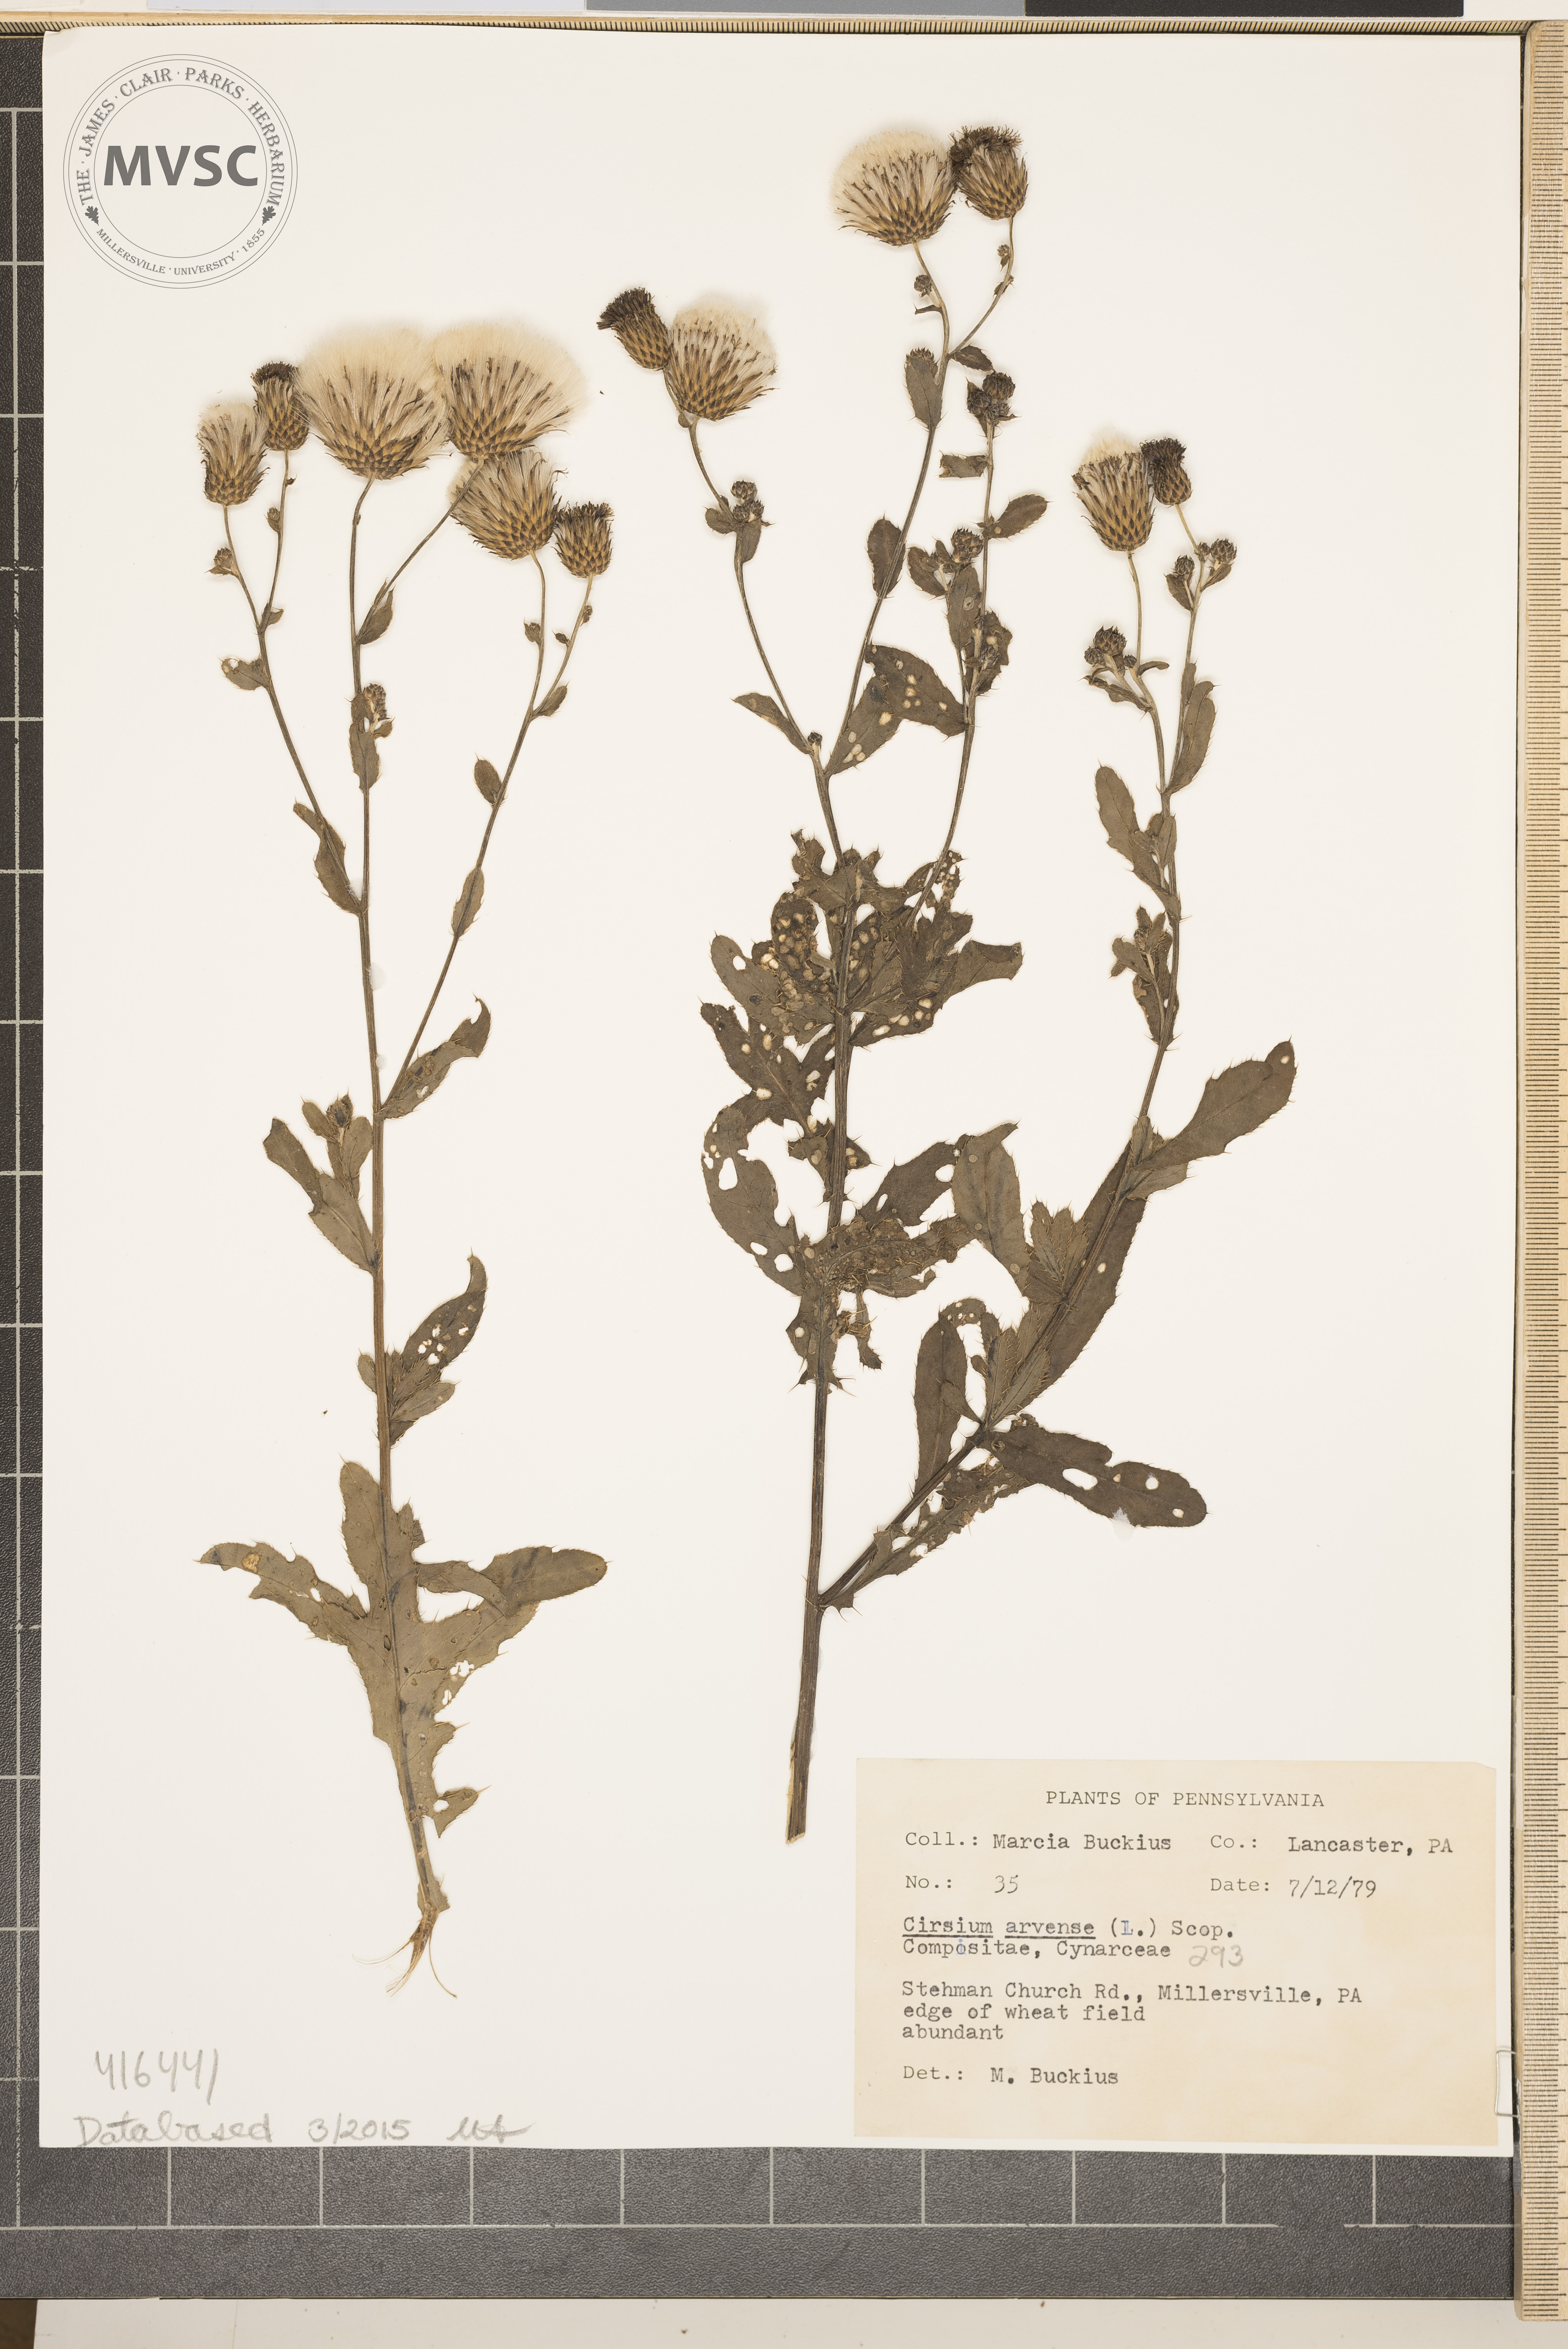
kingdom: Plantae
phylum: Tracheophyta
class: Magnoliopsida
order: Asterales
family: Asteraceae
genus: Cirsium
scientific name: Cirsium arvense
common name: Creeping Thistle
